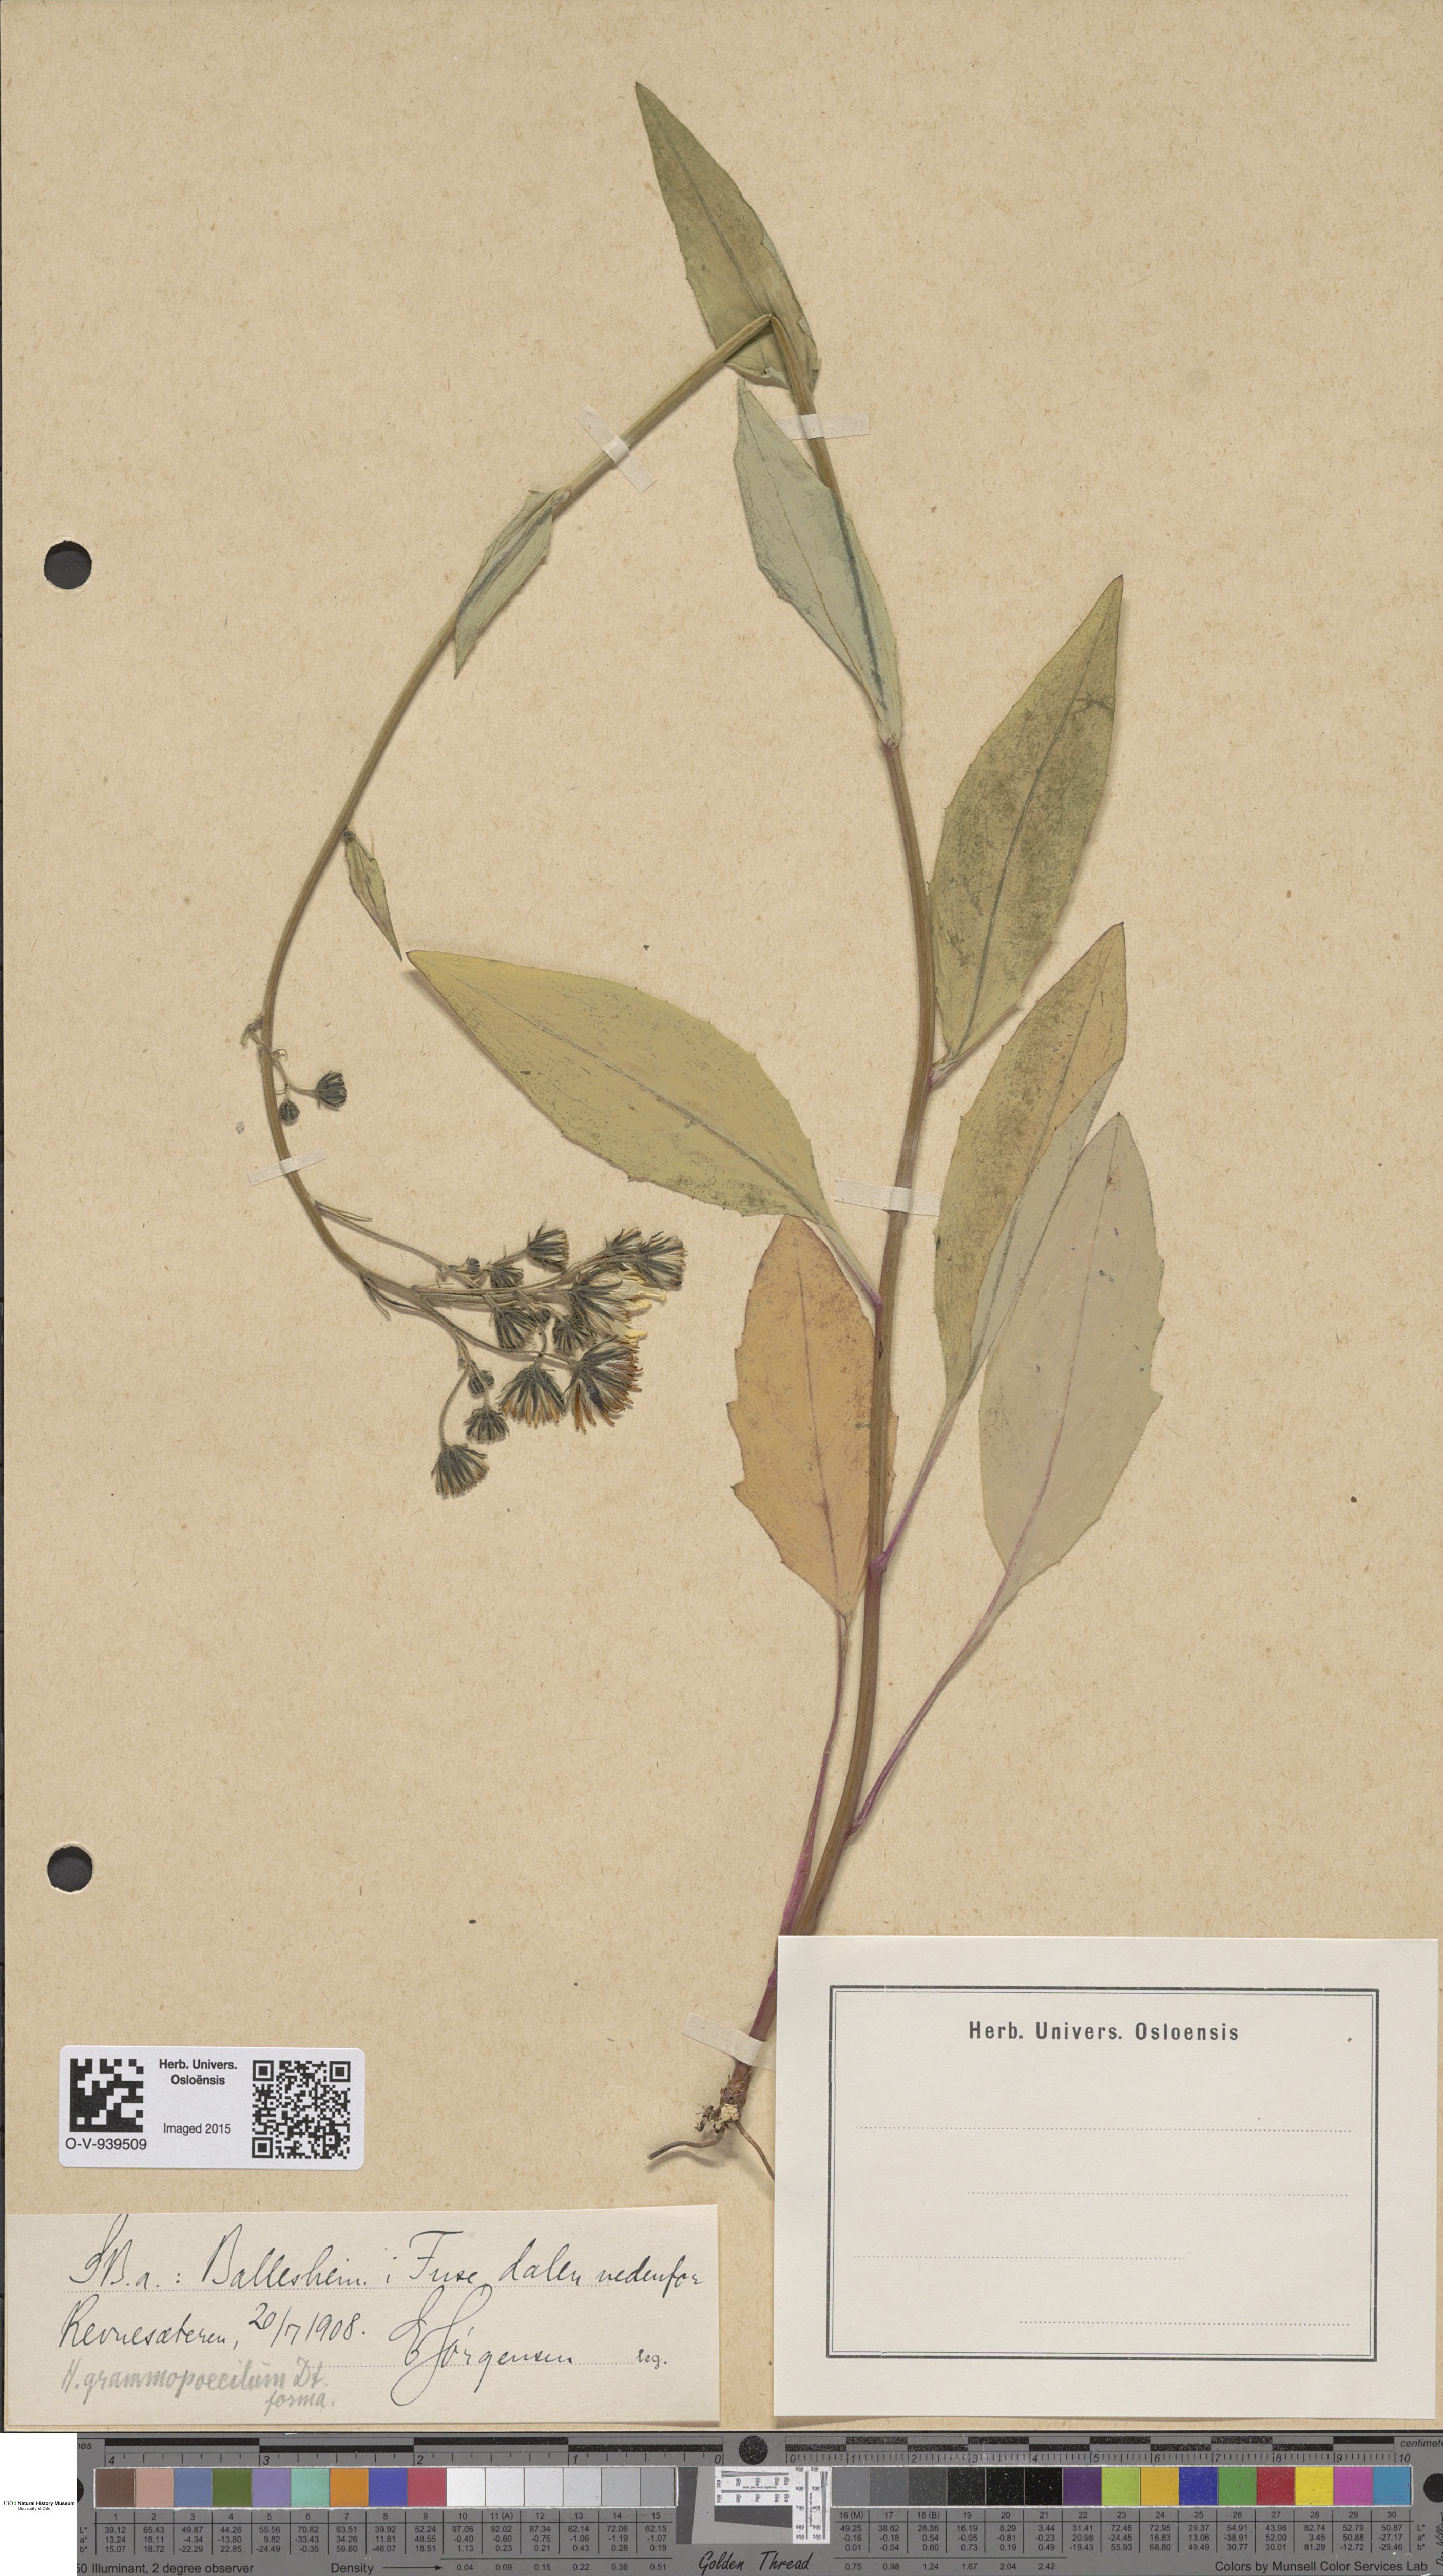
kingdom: Plantae
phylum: Tracheophyta
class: Magnoliopsida
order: Asterales
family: Asteraceae
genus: Hieracium
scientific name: Hieracium
